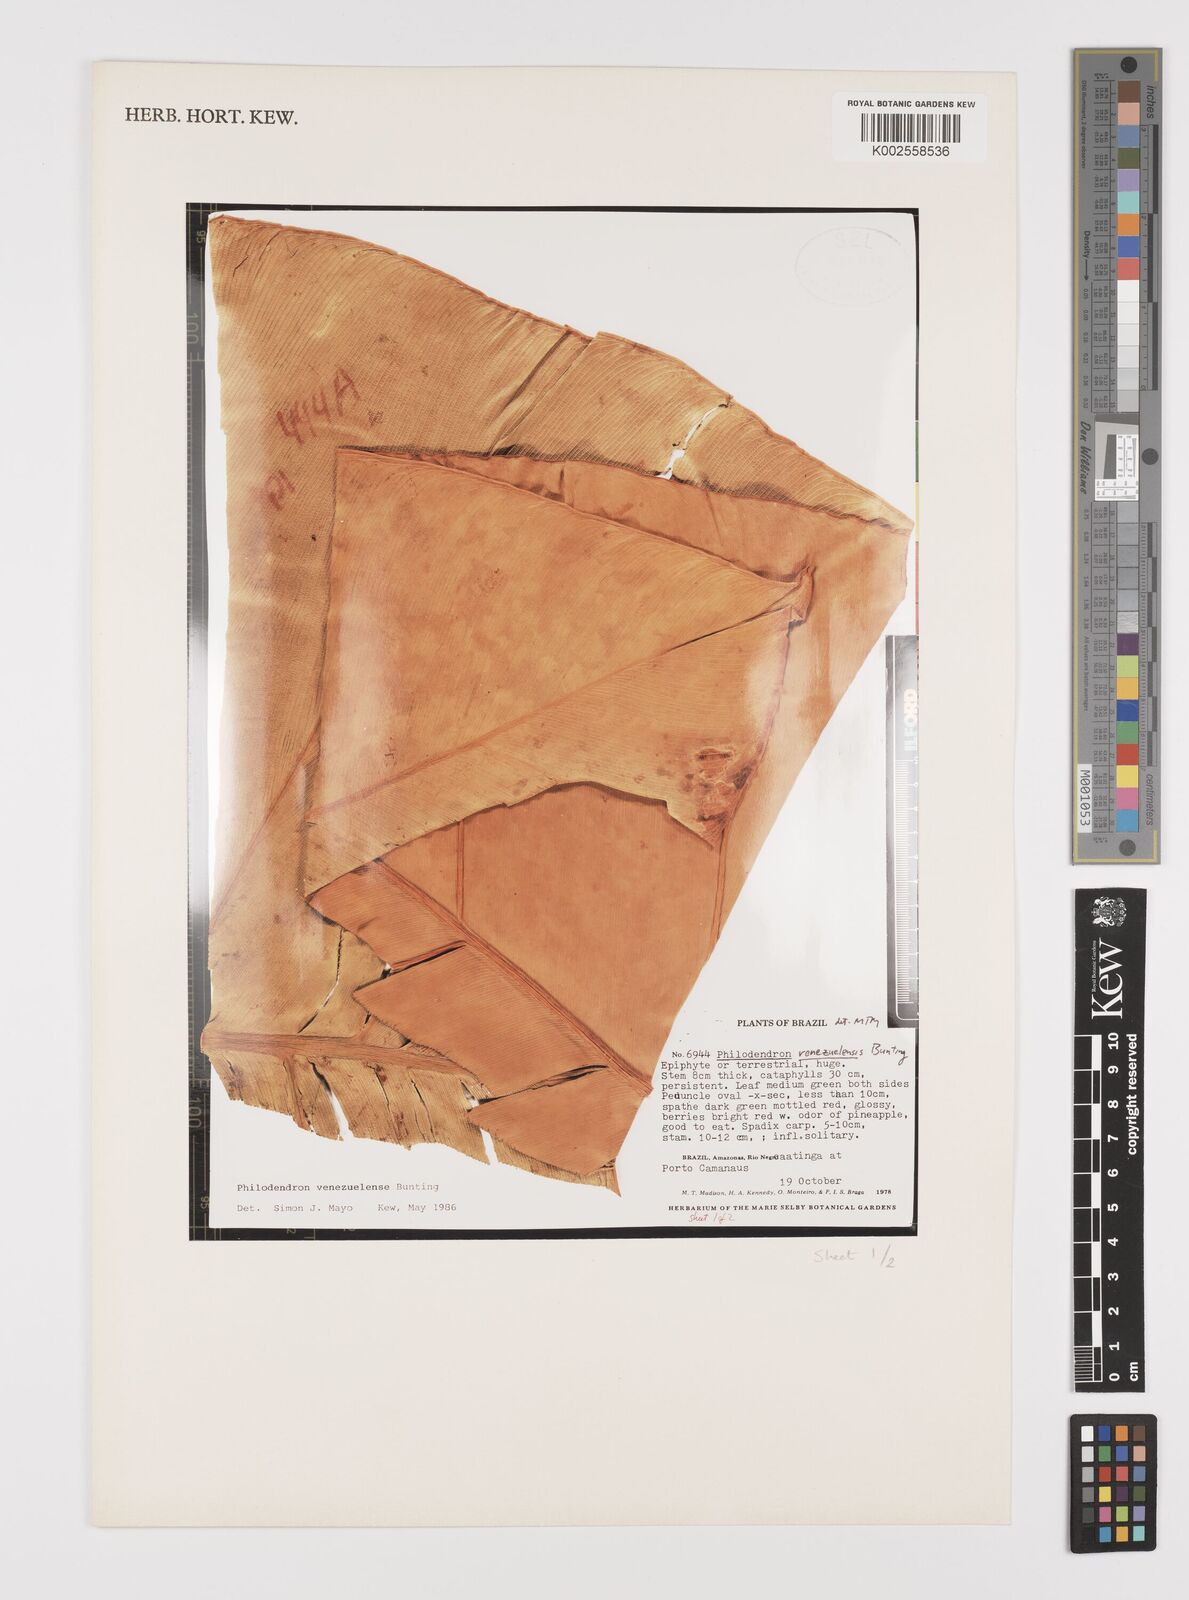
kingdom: Plantae
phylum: Tracheophyta
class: Liliopsida
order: Alismatales
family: Araceae
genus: Thaumatophyllum
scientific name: Thaumatophyllum venezuelense
